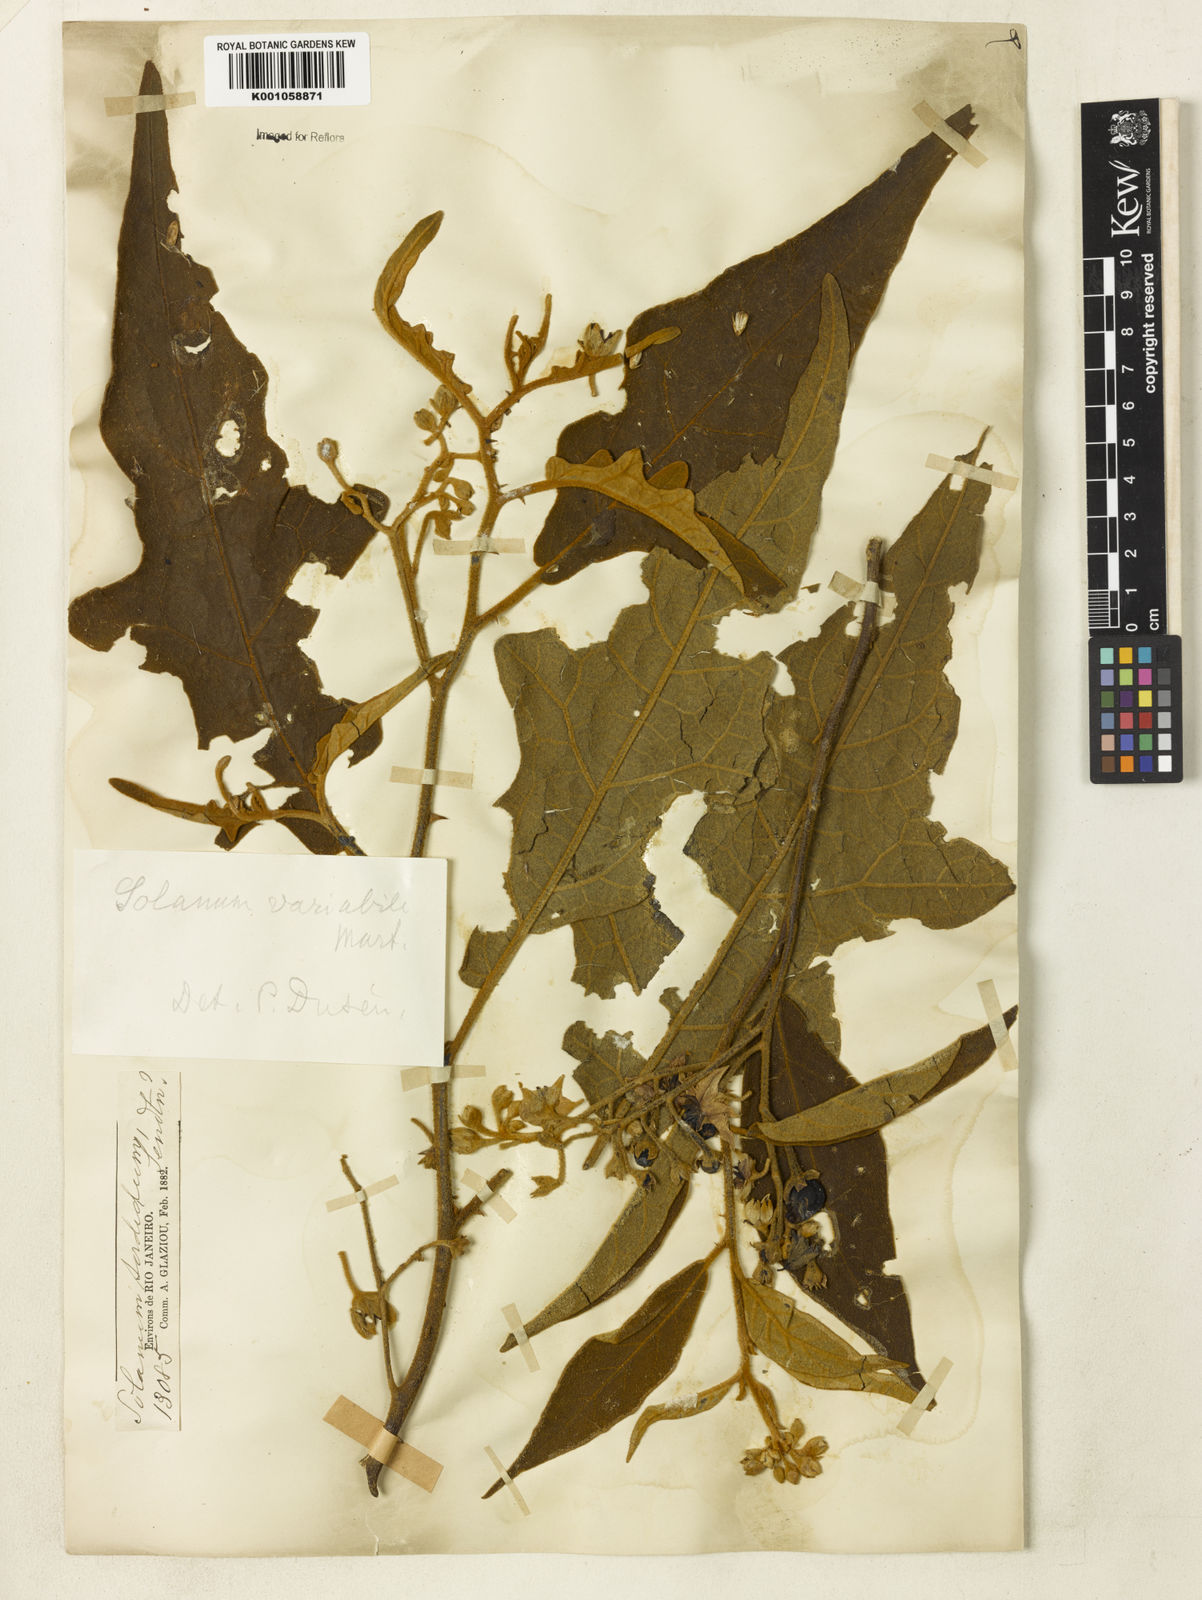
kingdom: Plantae
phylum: Tracheophyta
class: Magnoliopsida
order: Solanales
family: Solanaceae
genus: Solanum
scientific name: Solanum variabile
